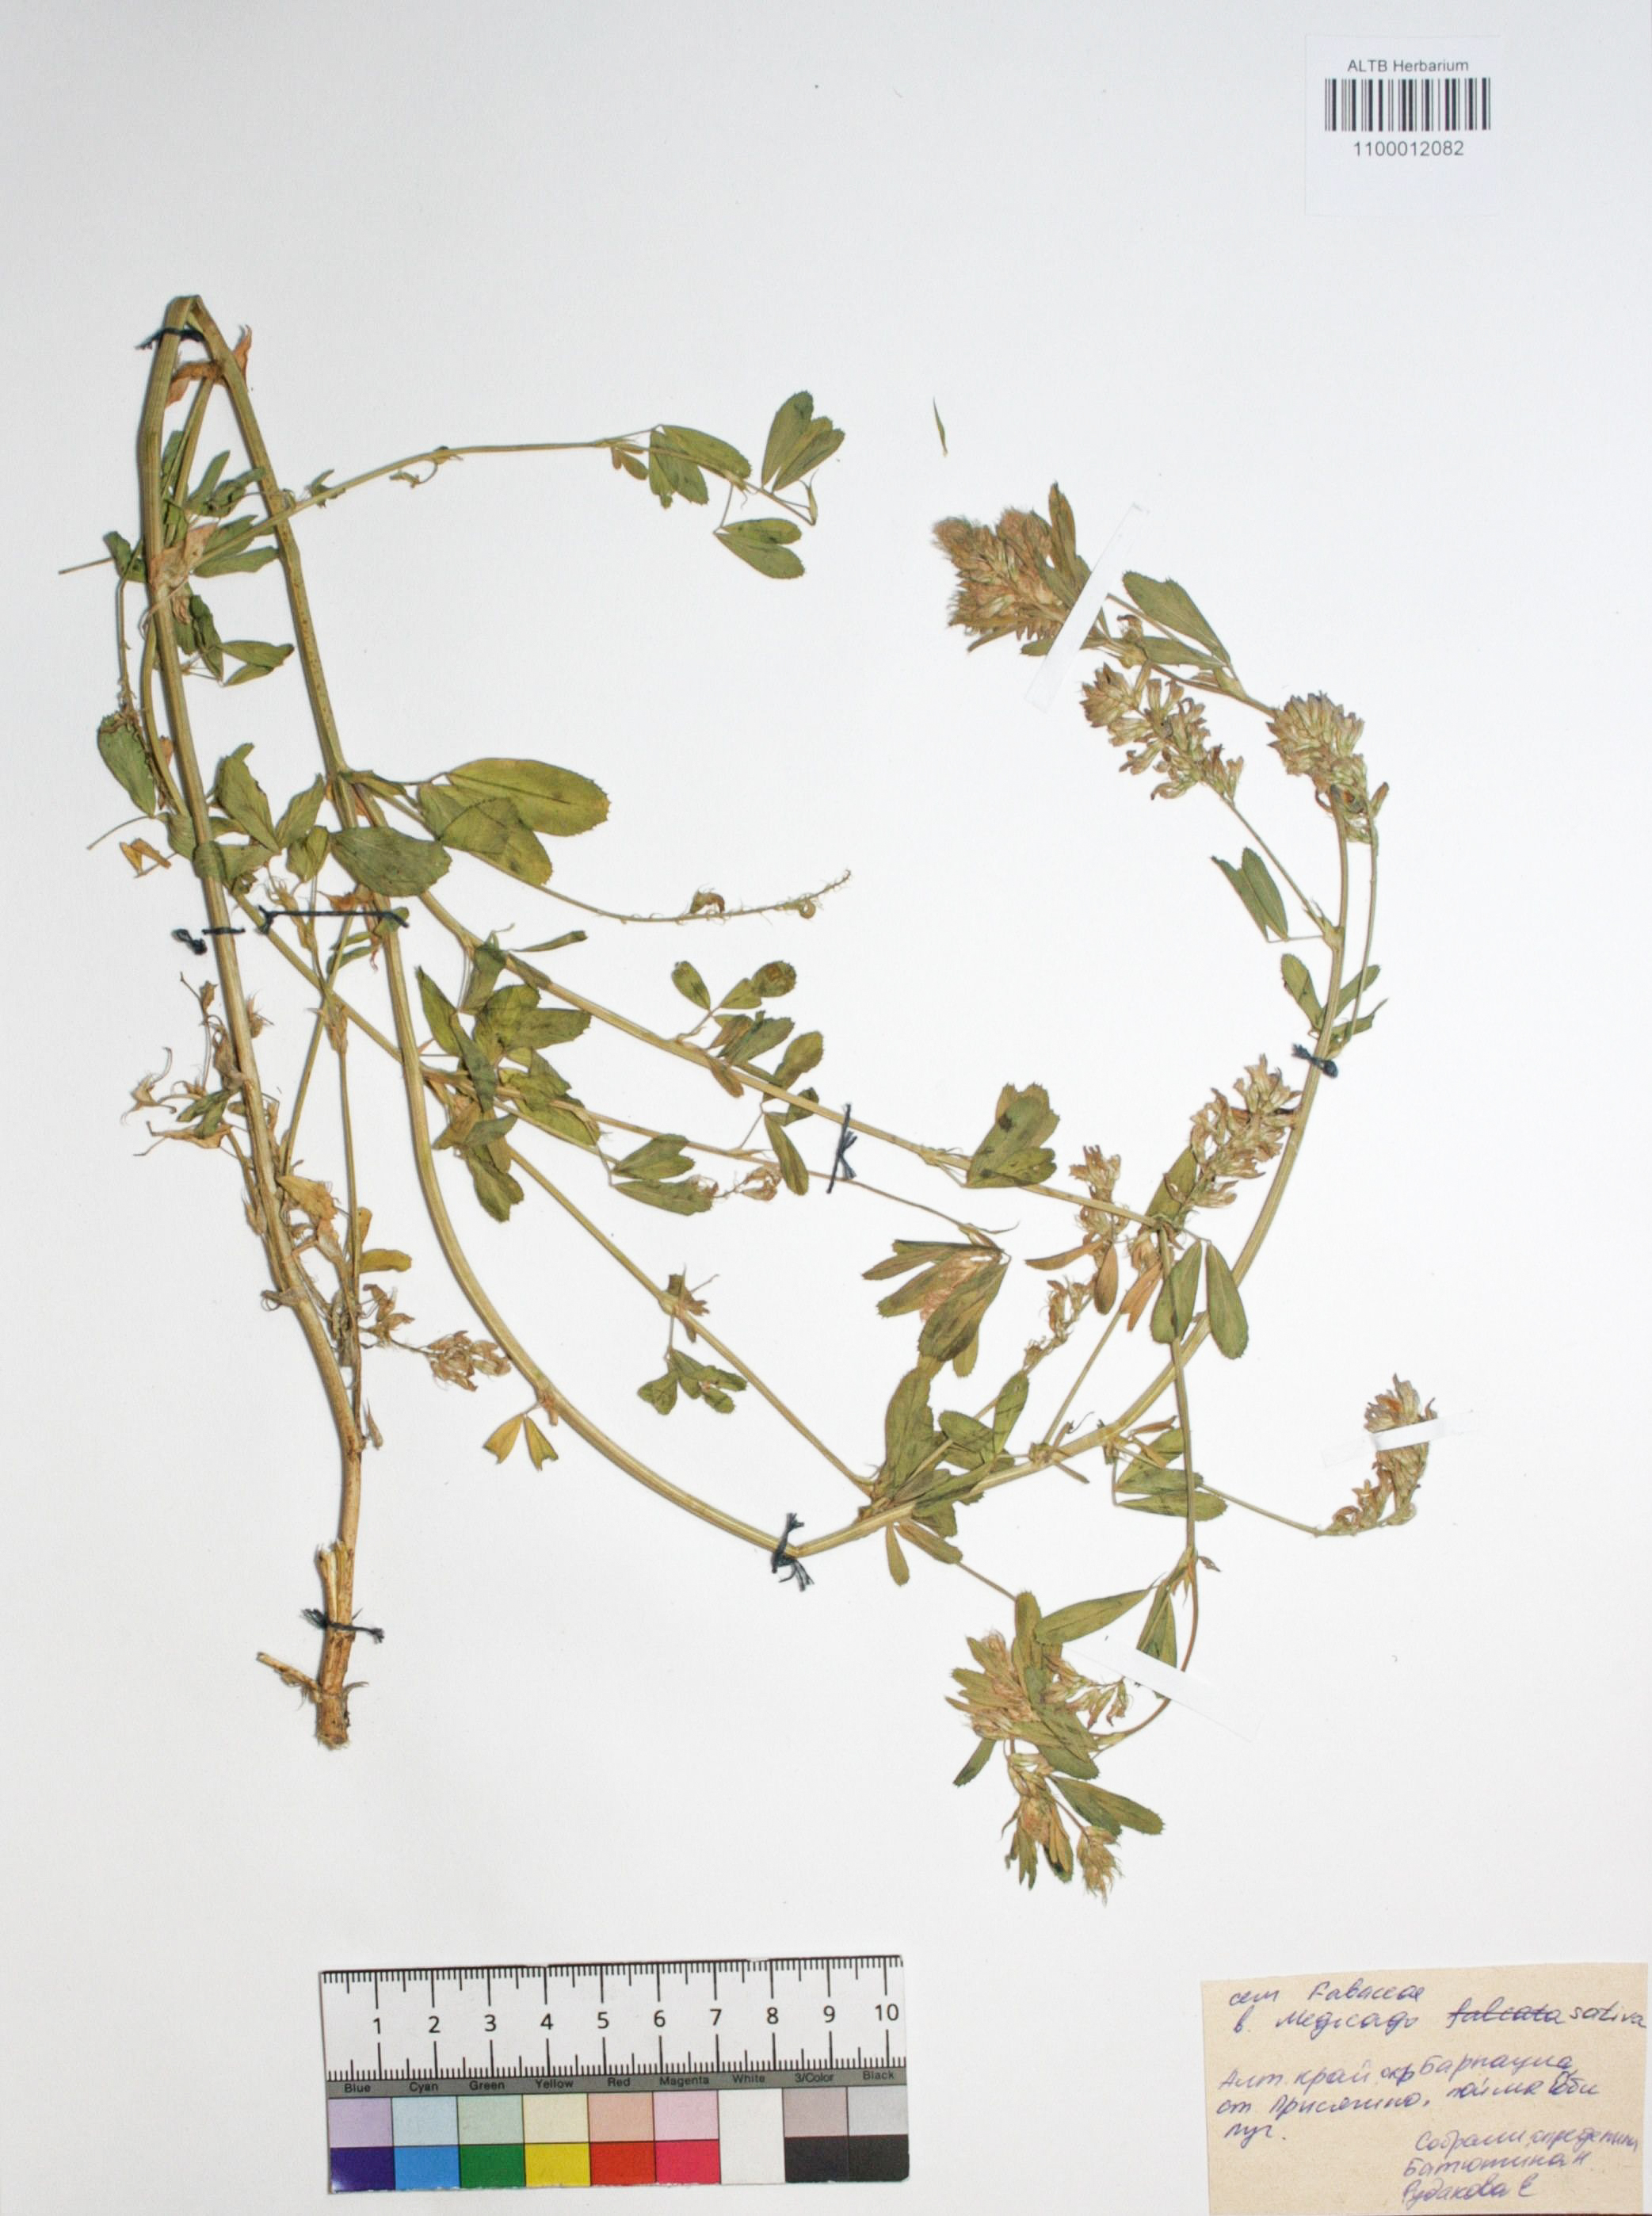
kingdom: Plantae
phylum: Tracheophyta
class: Magnoliopsida
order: Fabales
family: Fabaceae
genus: Medicago
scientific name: Medicago sativa
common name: Alfalfa
